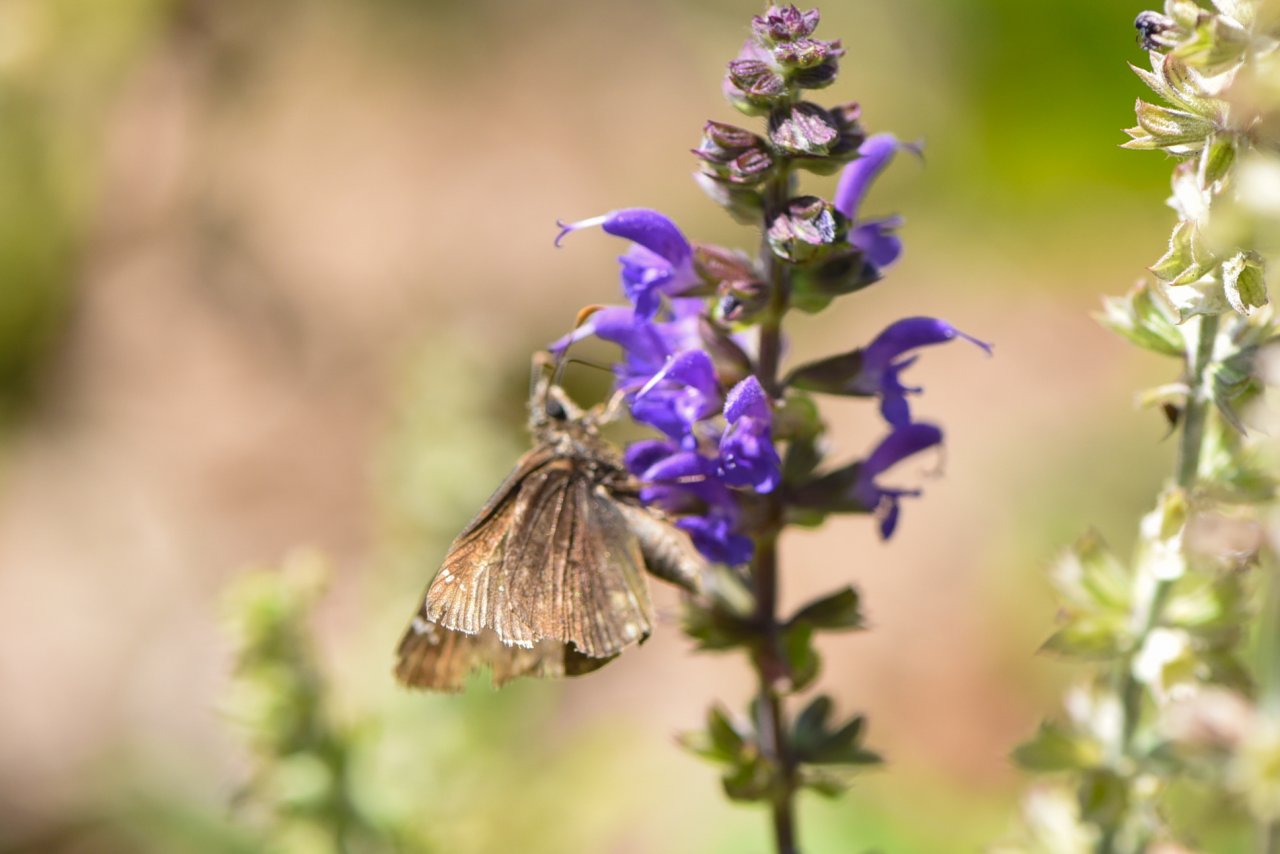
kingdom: Animalia
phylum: Arthropoda
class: Insecta
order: Lepidoptera
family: Hesperiidae
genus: Gesta
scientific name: Gesta
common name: Wild Indigo Duskywing
